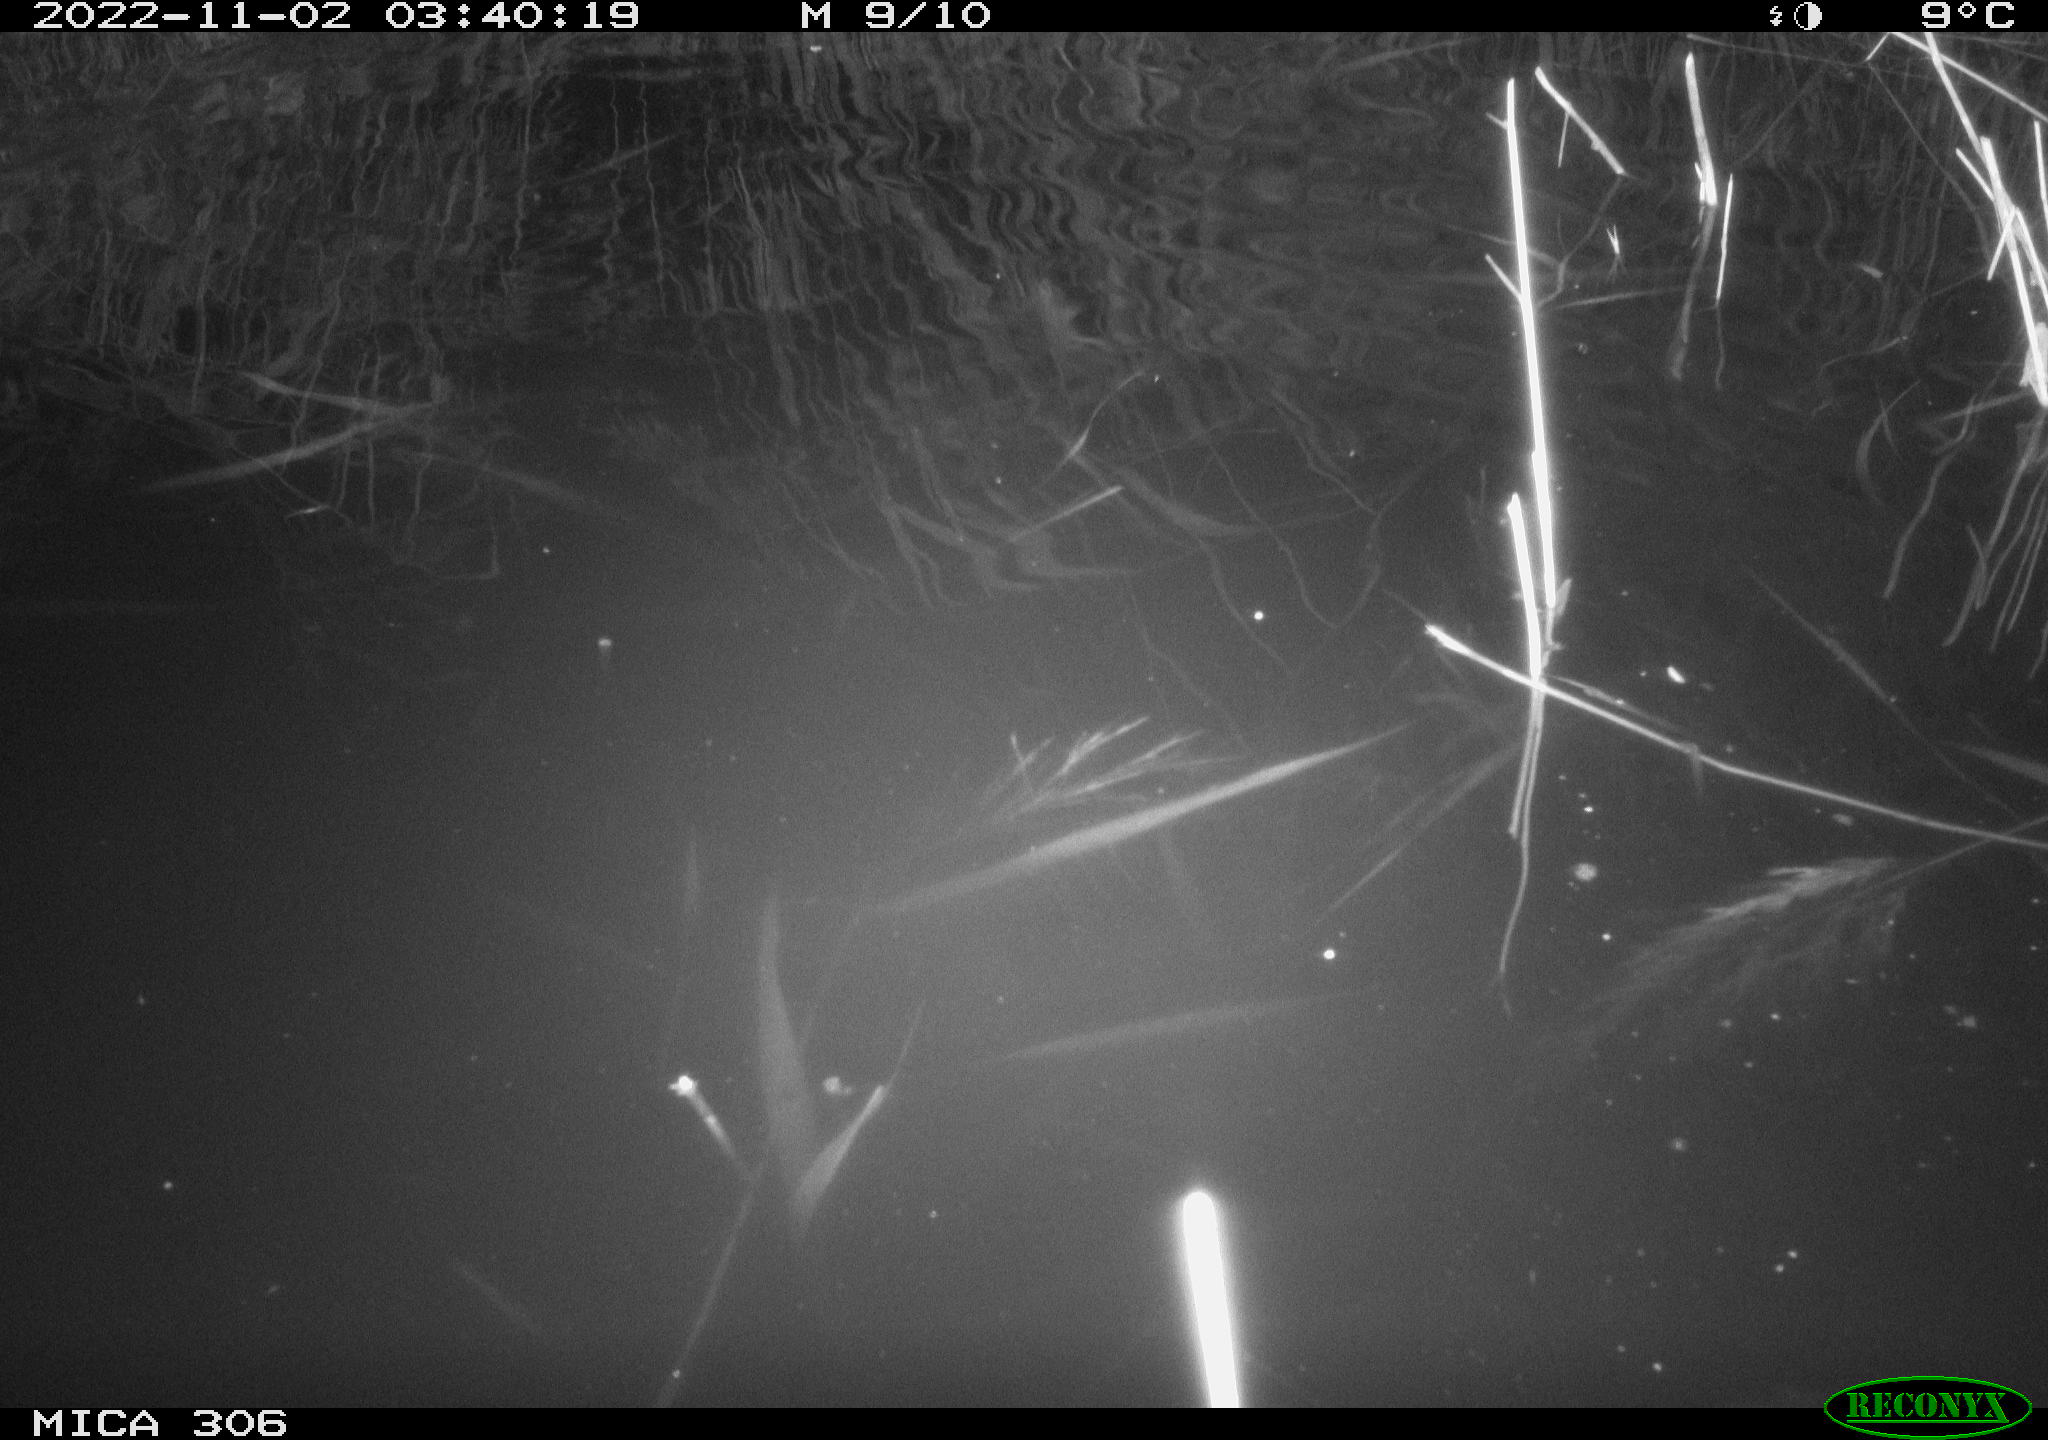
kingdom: Animalia
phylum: Chordata
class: Mammalia
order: Rodentia
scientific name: Rodentia
